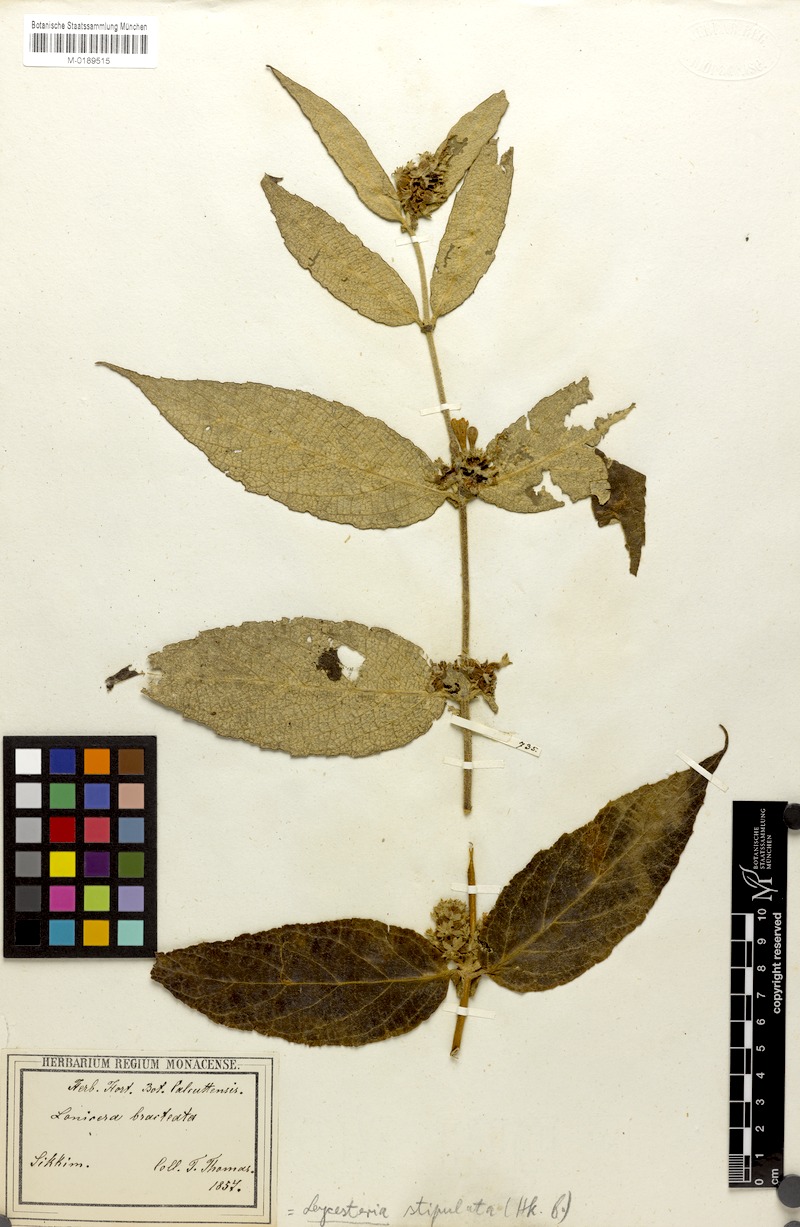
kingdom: Plantae
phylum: Tracheophyta
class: Magnoliopsida
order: Dipsacales
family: Caprifoliaceae
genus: Leycesteria
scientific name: Leycesteria stipulata
